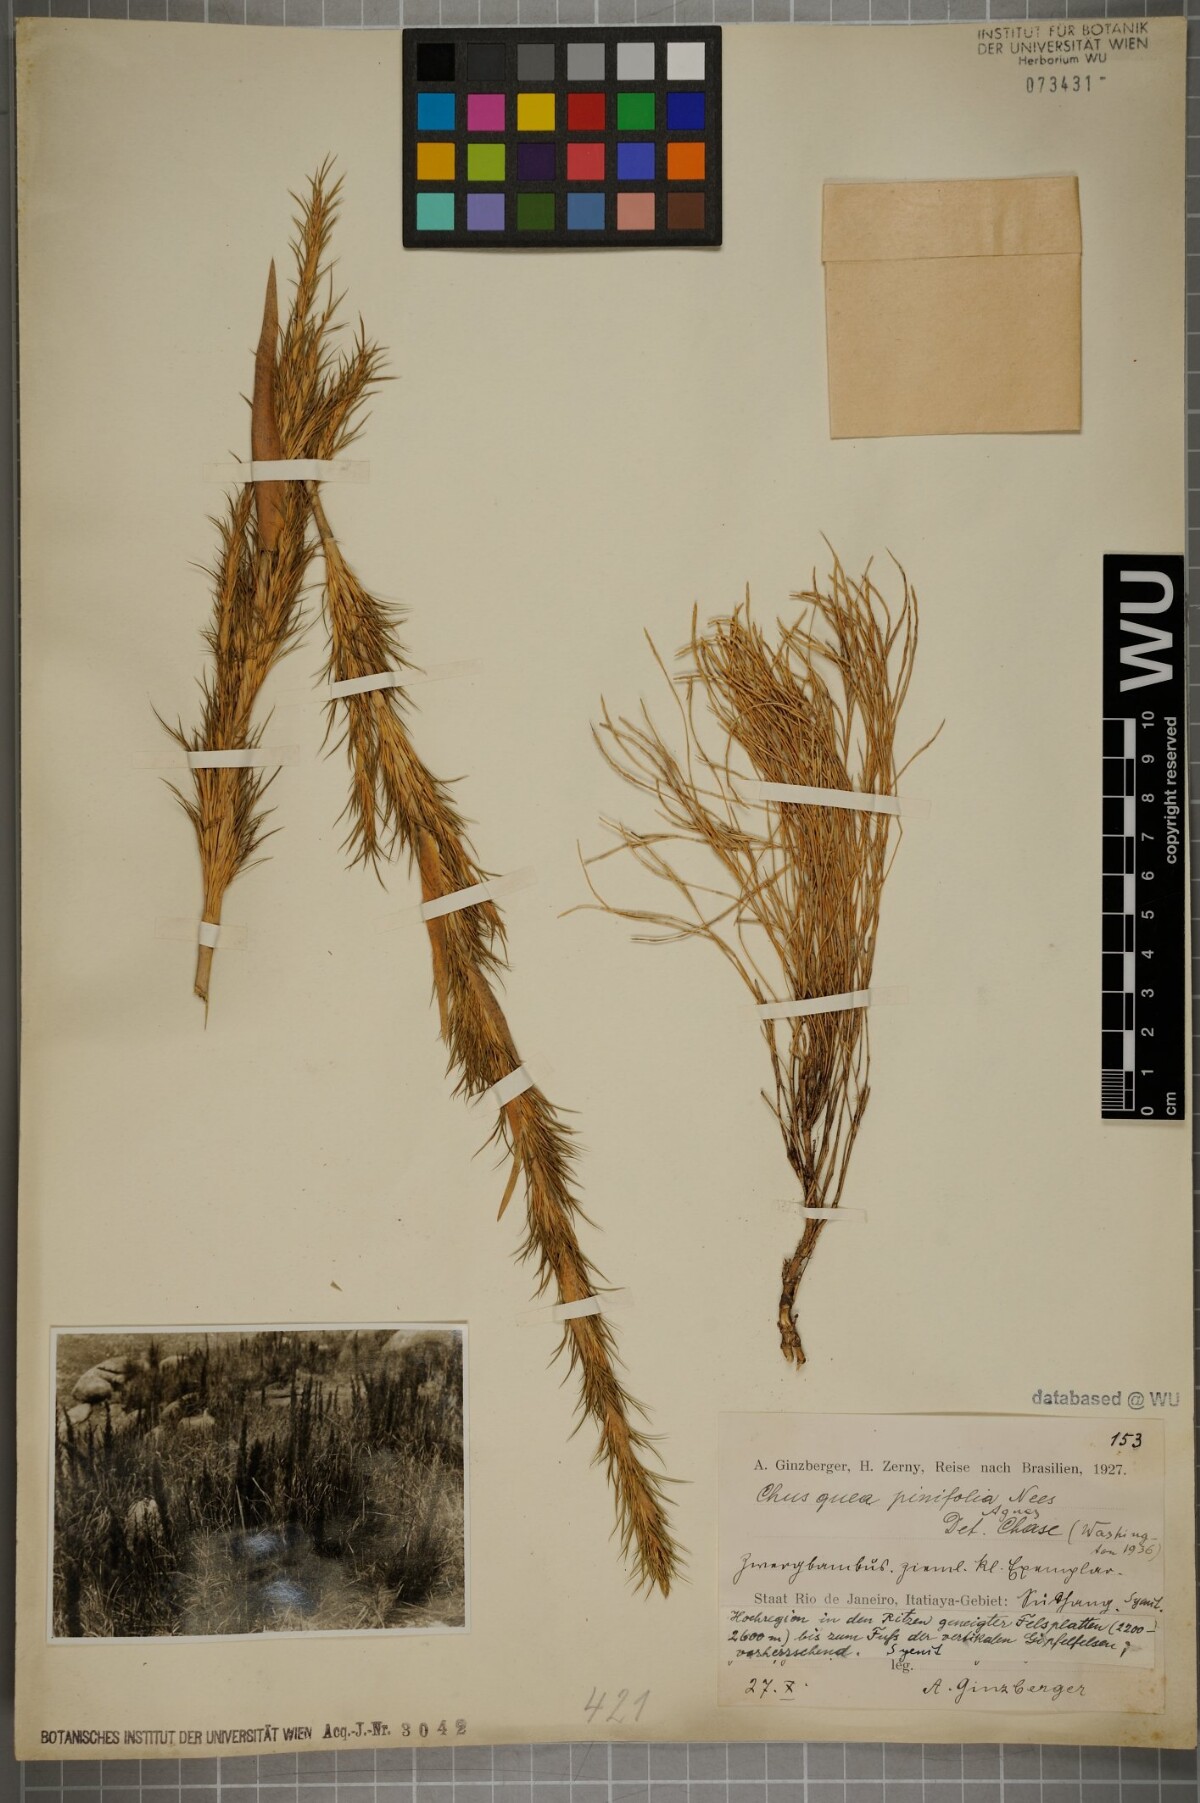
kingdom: Plantae
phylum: Tracheophyta
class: Liliopsida
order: Poales
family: Poaceae
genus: Chusquea
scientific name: Chusquea pinifolia
